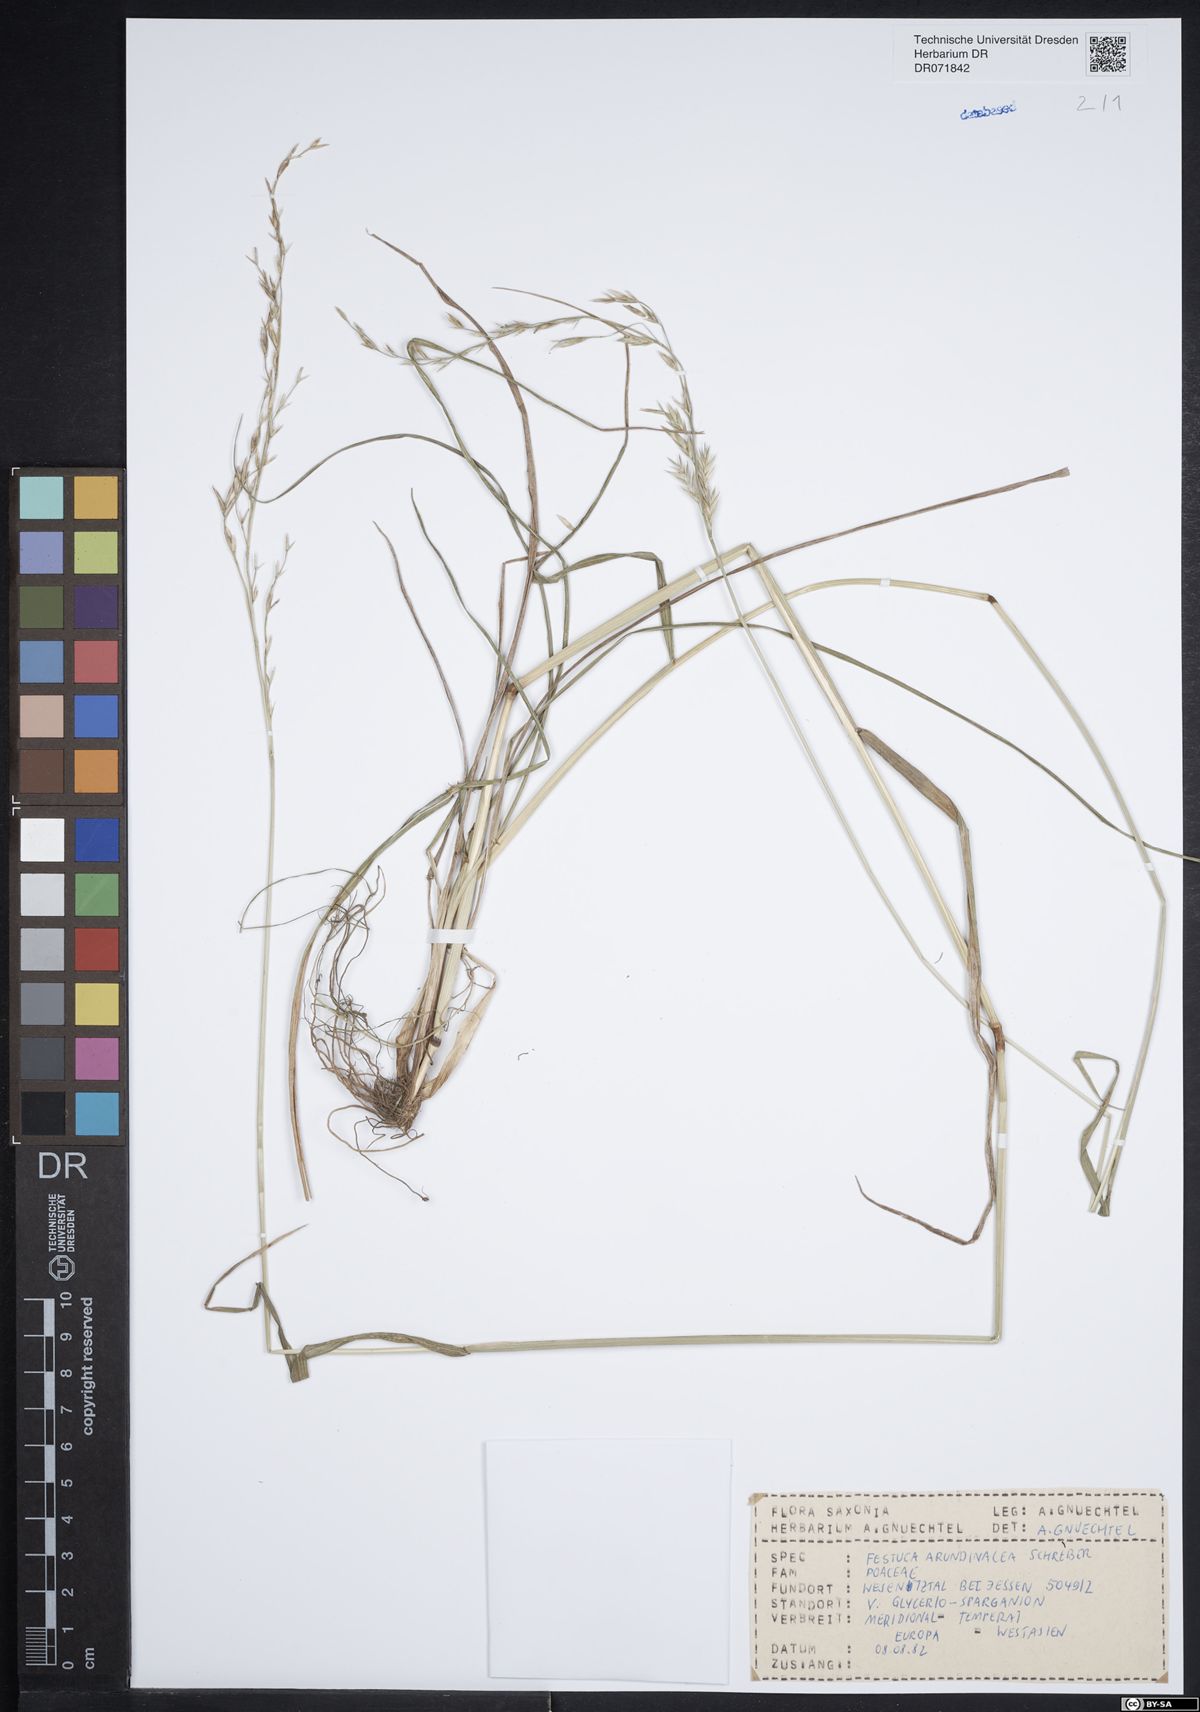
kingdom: Plantae
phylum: Tracheophyta
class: Liliopsida
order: Poales
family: Poaceae
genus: Lolium
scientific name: Lolium arundinaceum
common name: Reed fescue
